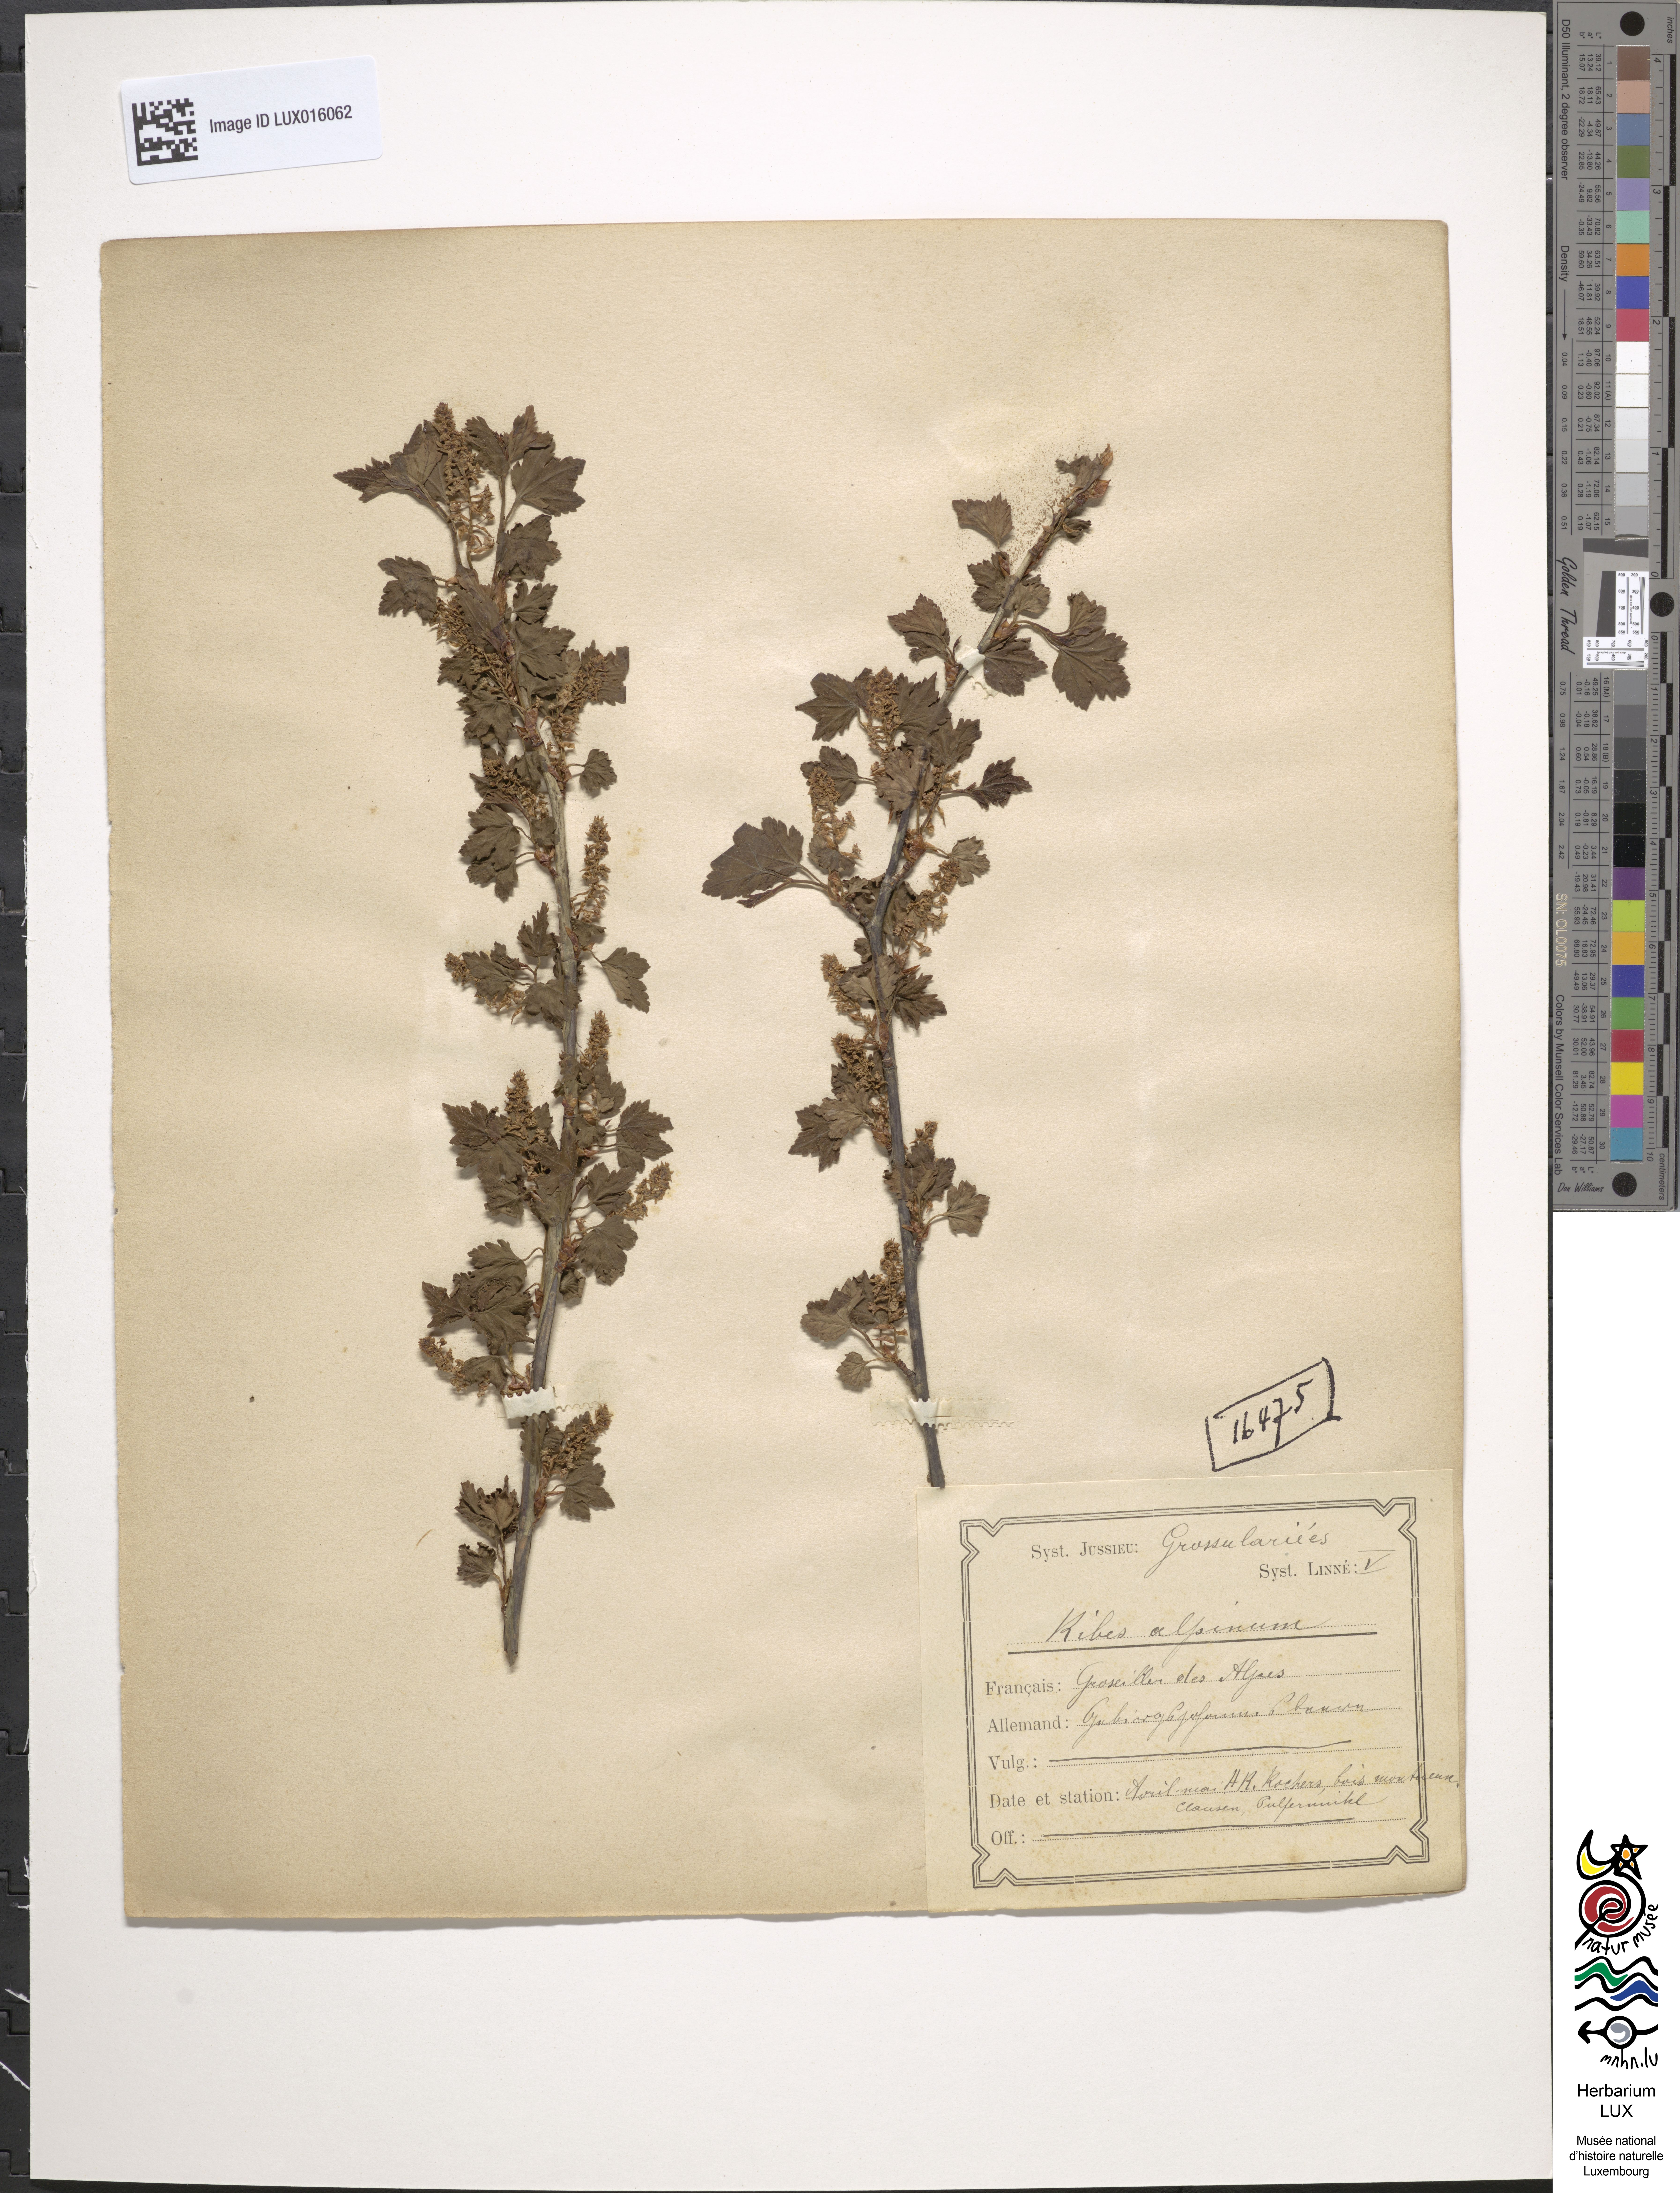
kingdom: Plantae
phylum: Tracheophyta
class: Magnoliopsida
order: Saxifragales
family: Grossulariaceae
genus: Ribes
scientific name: Ribes alpinum
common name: Alpine currant
